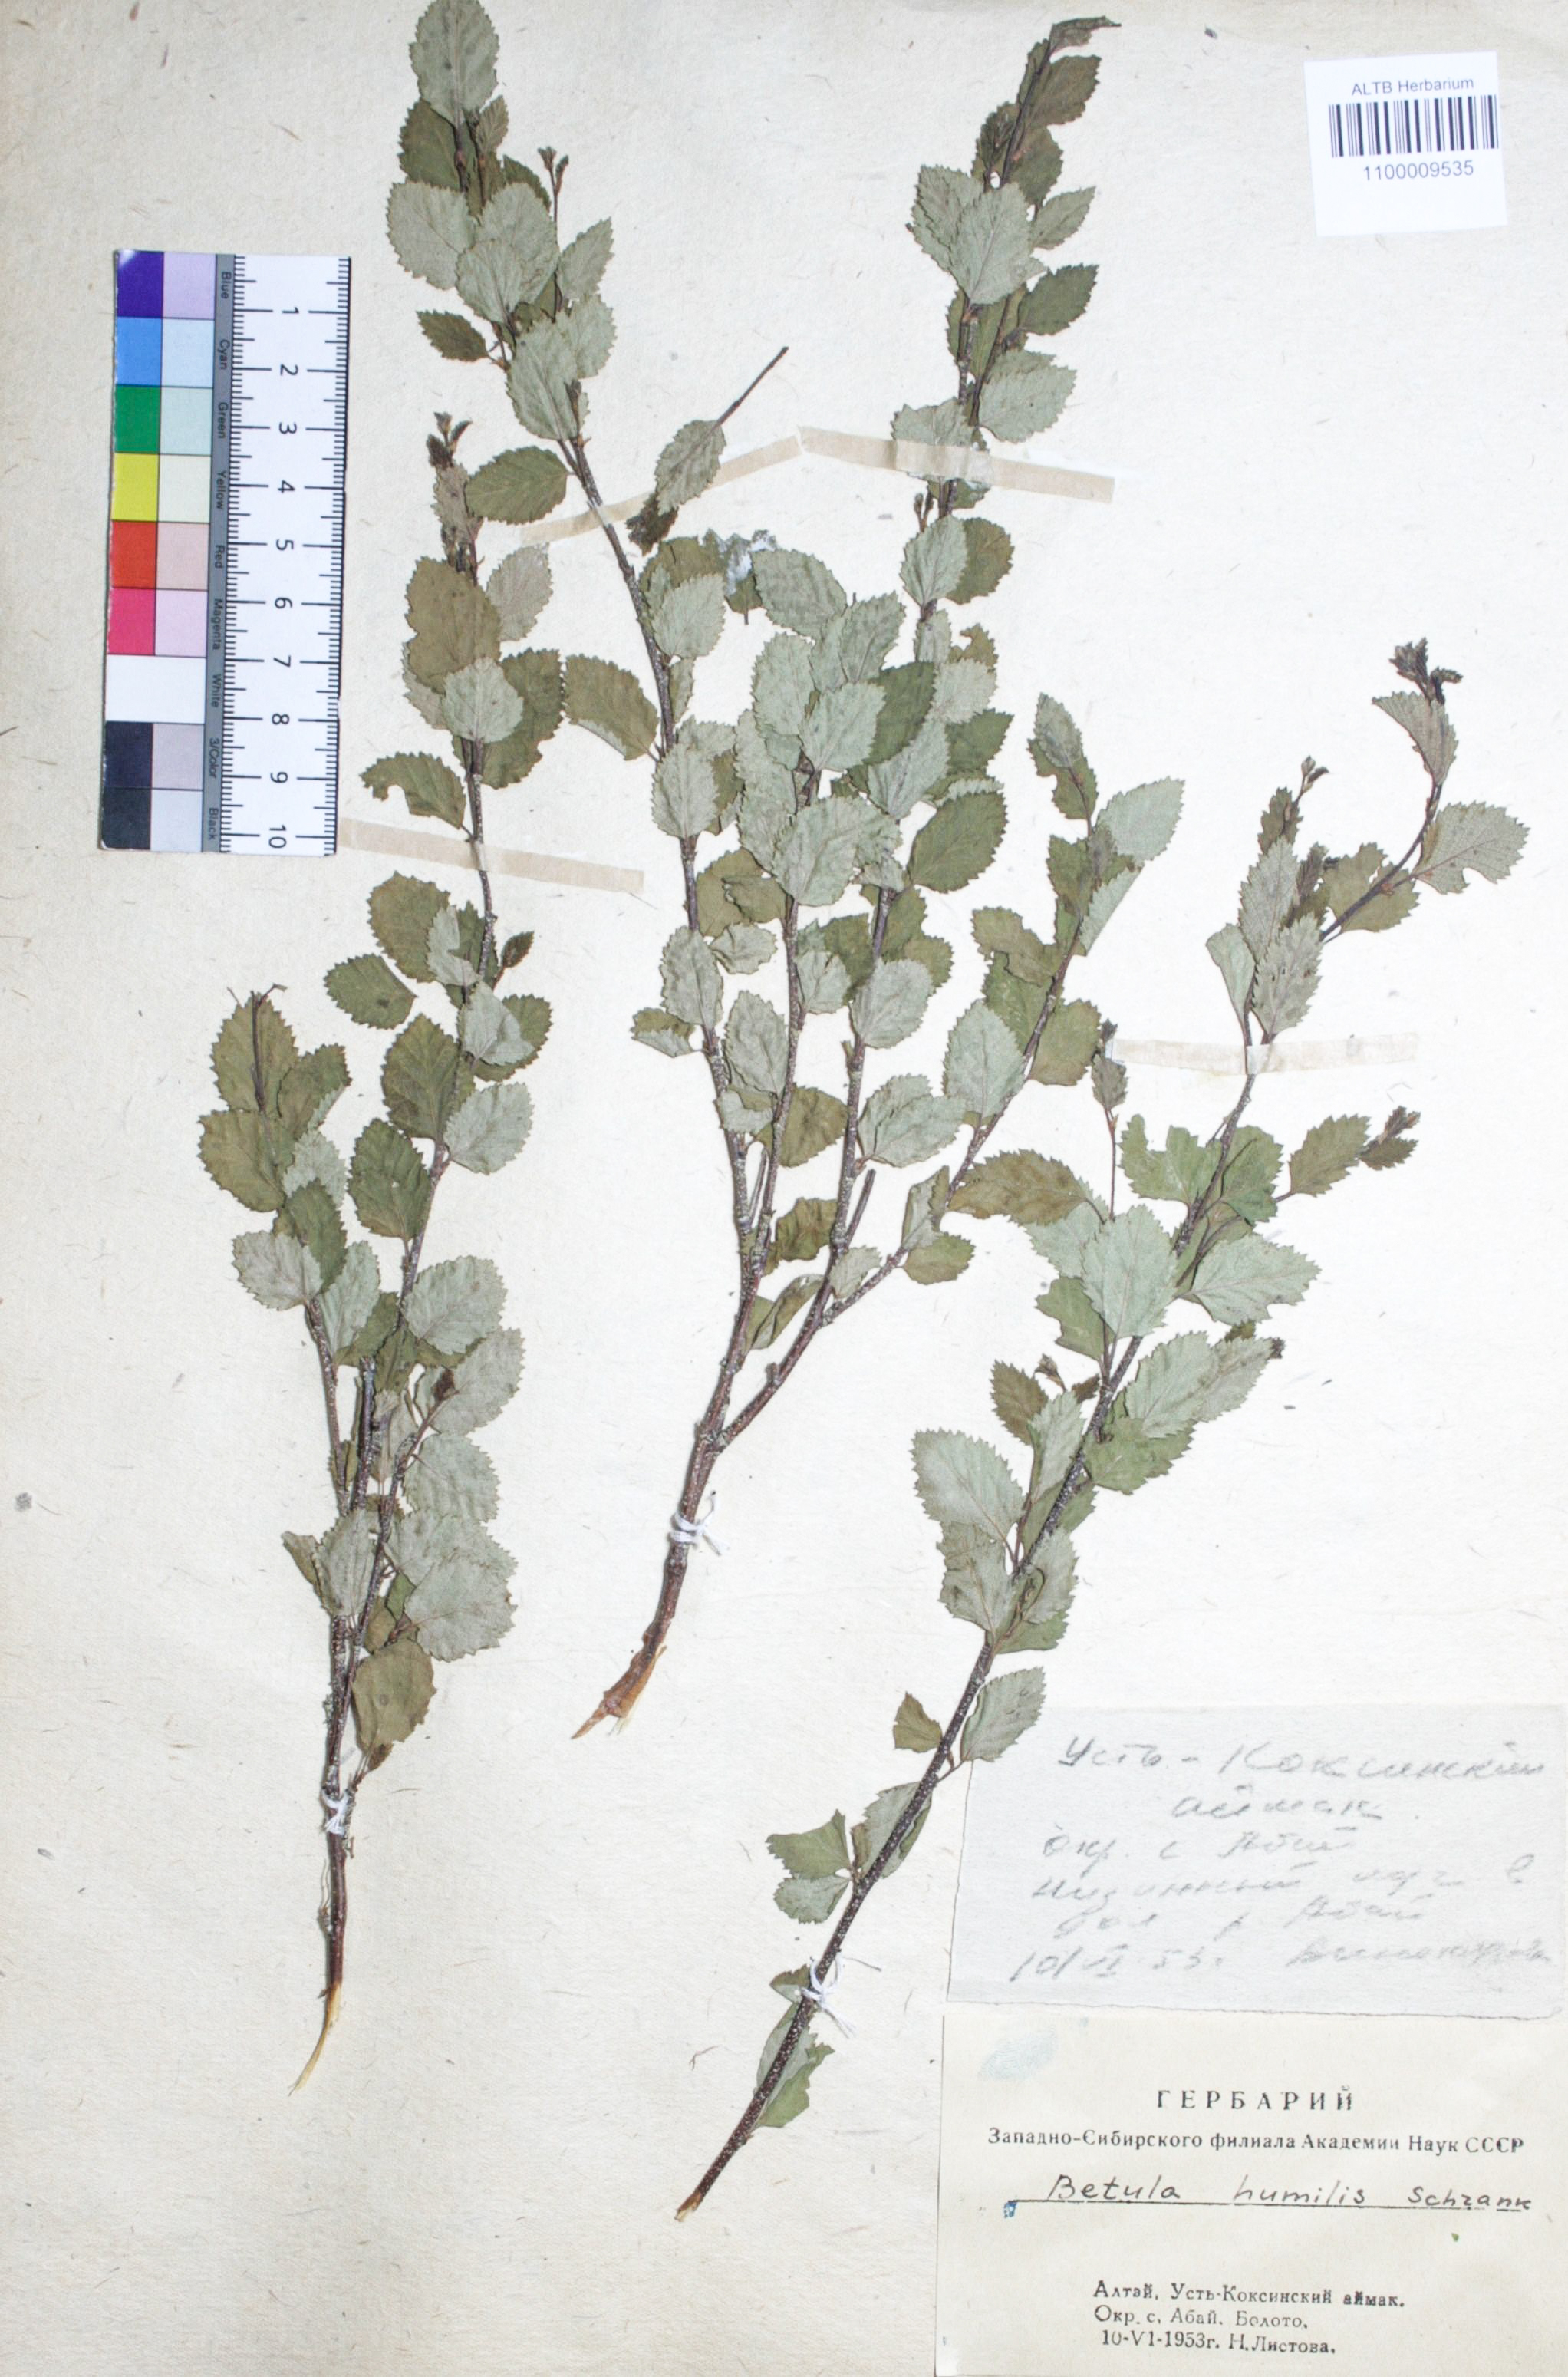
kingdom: Plantae
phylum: Tracheophyta
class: Magnoliopsida
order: Fagales
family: Betulaceae
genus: Betula
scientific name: Betula humilis
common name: Shrubby birch
